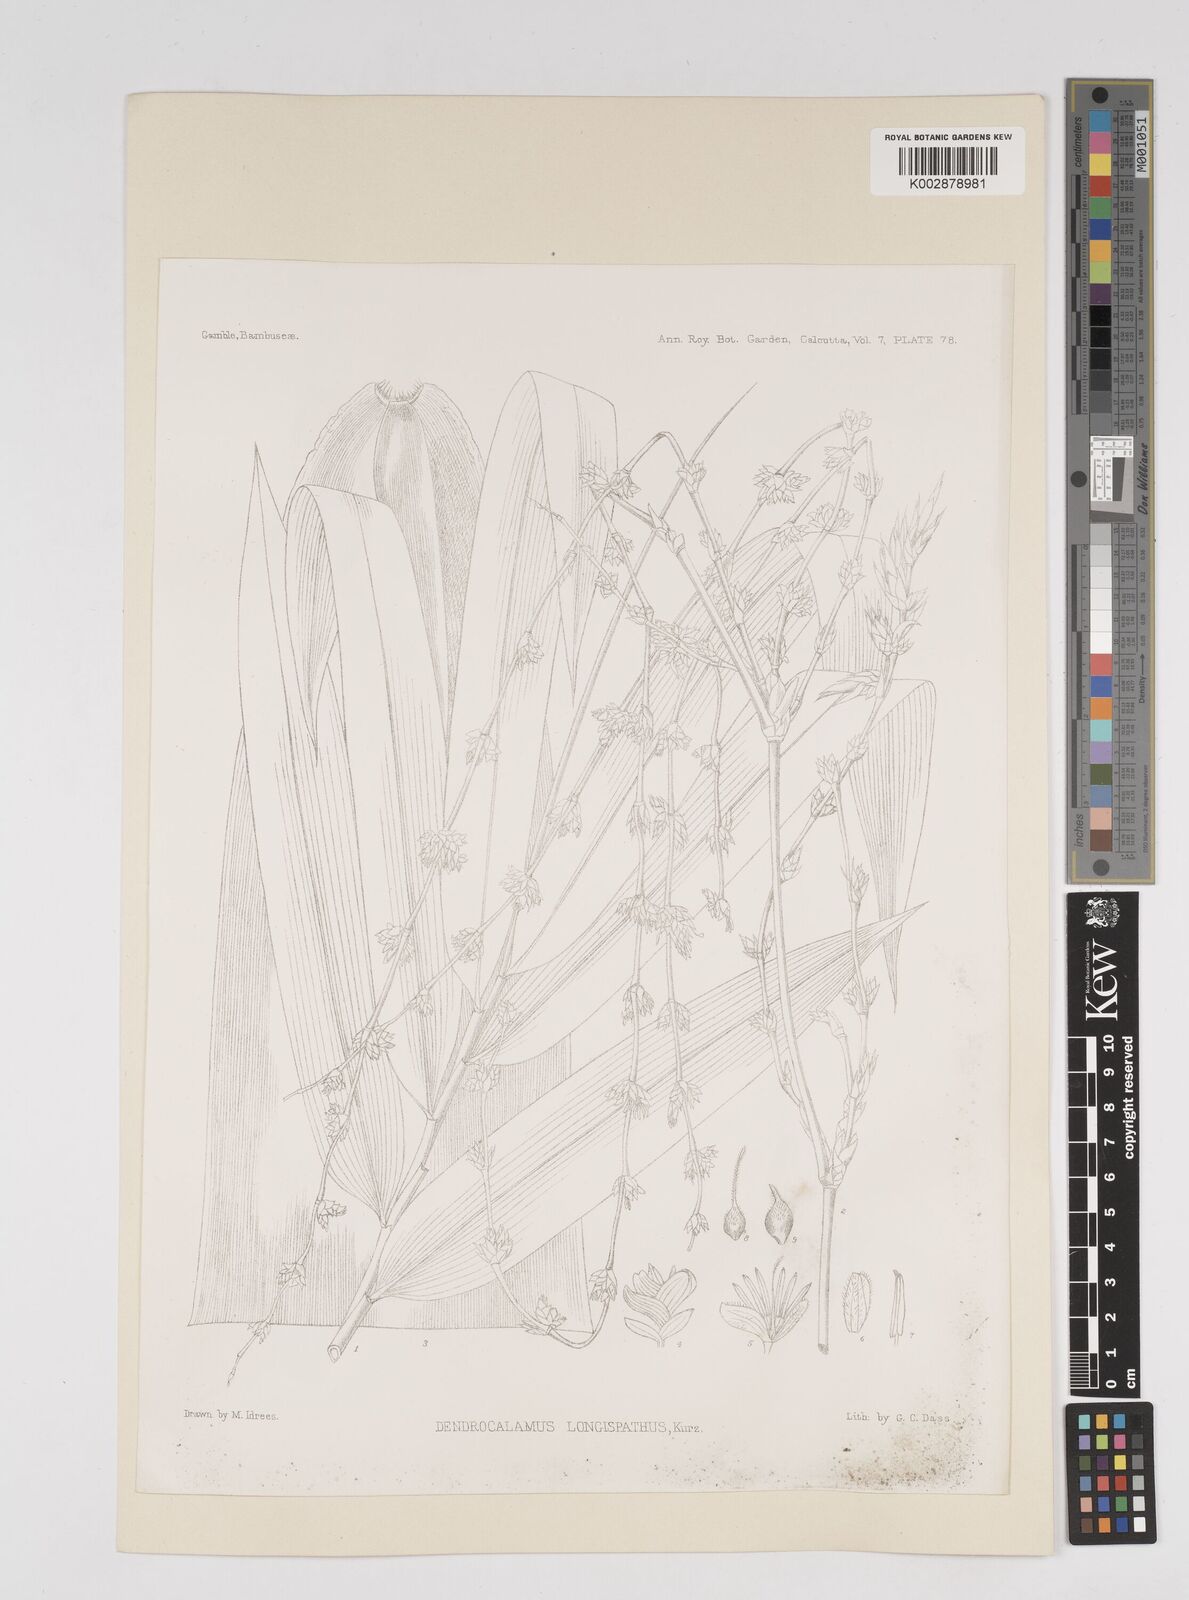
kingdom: Plantae
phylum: Tracheophyta
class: Liliopsida
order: Poales
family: Poaceae
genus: Dendrocalamus
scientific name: Dendrocalamus longispathus
